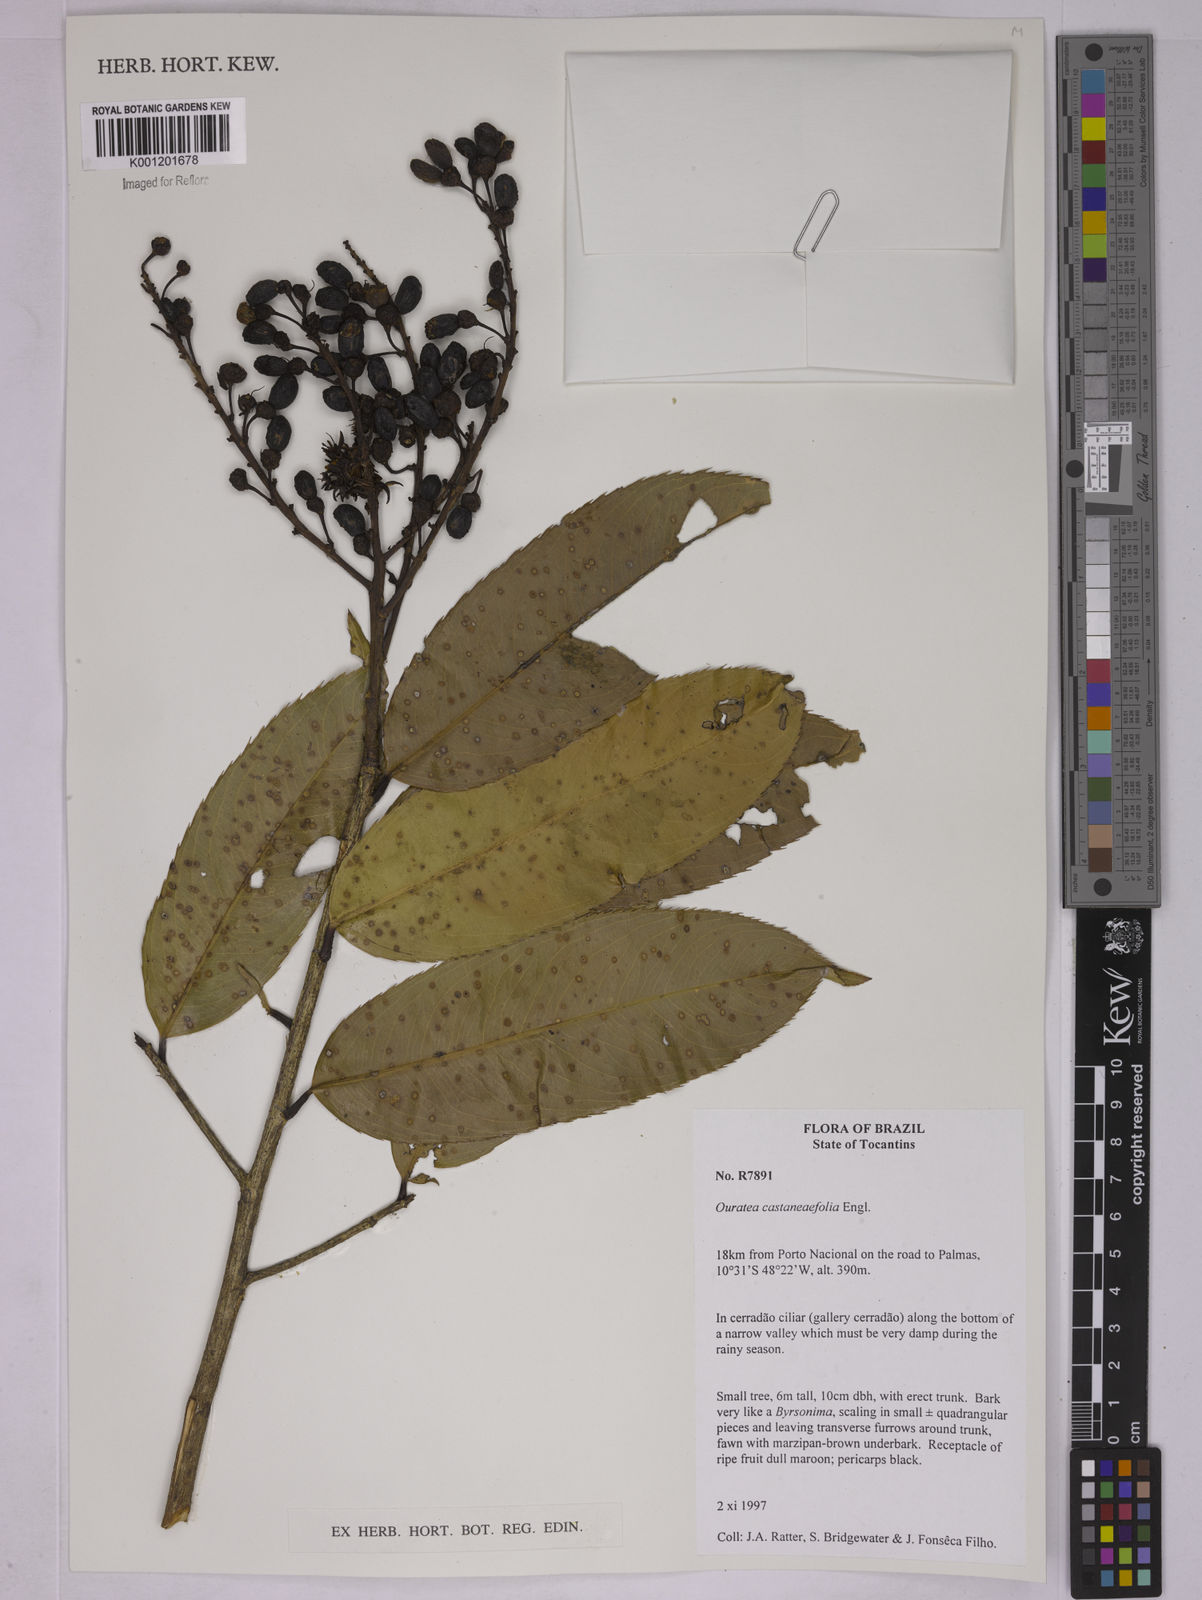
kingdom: Plantae
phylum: Tracheophyta
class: Magnoliopsida
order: Malpighiales
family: Ochnaceae
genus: Ouratea
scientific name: Ouratea castaneifolia
